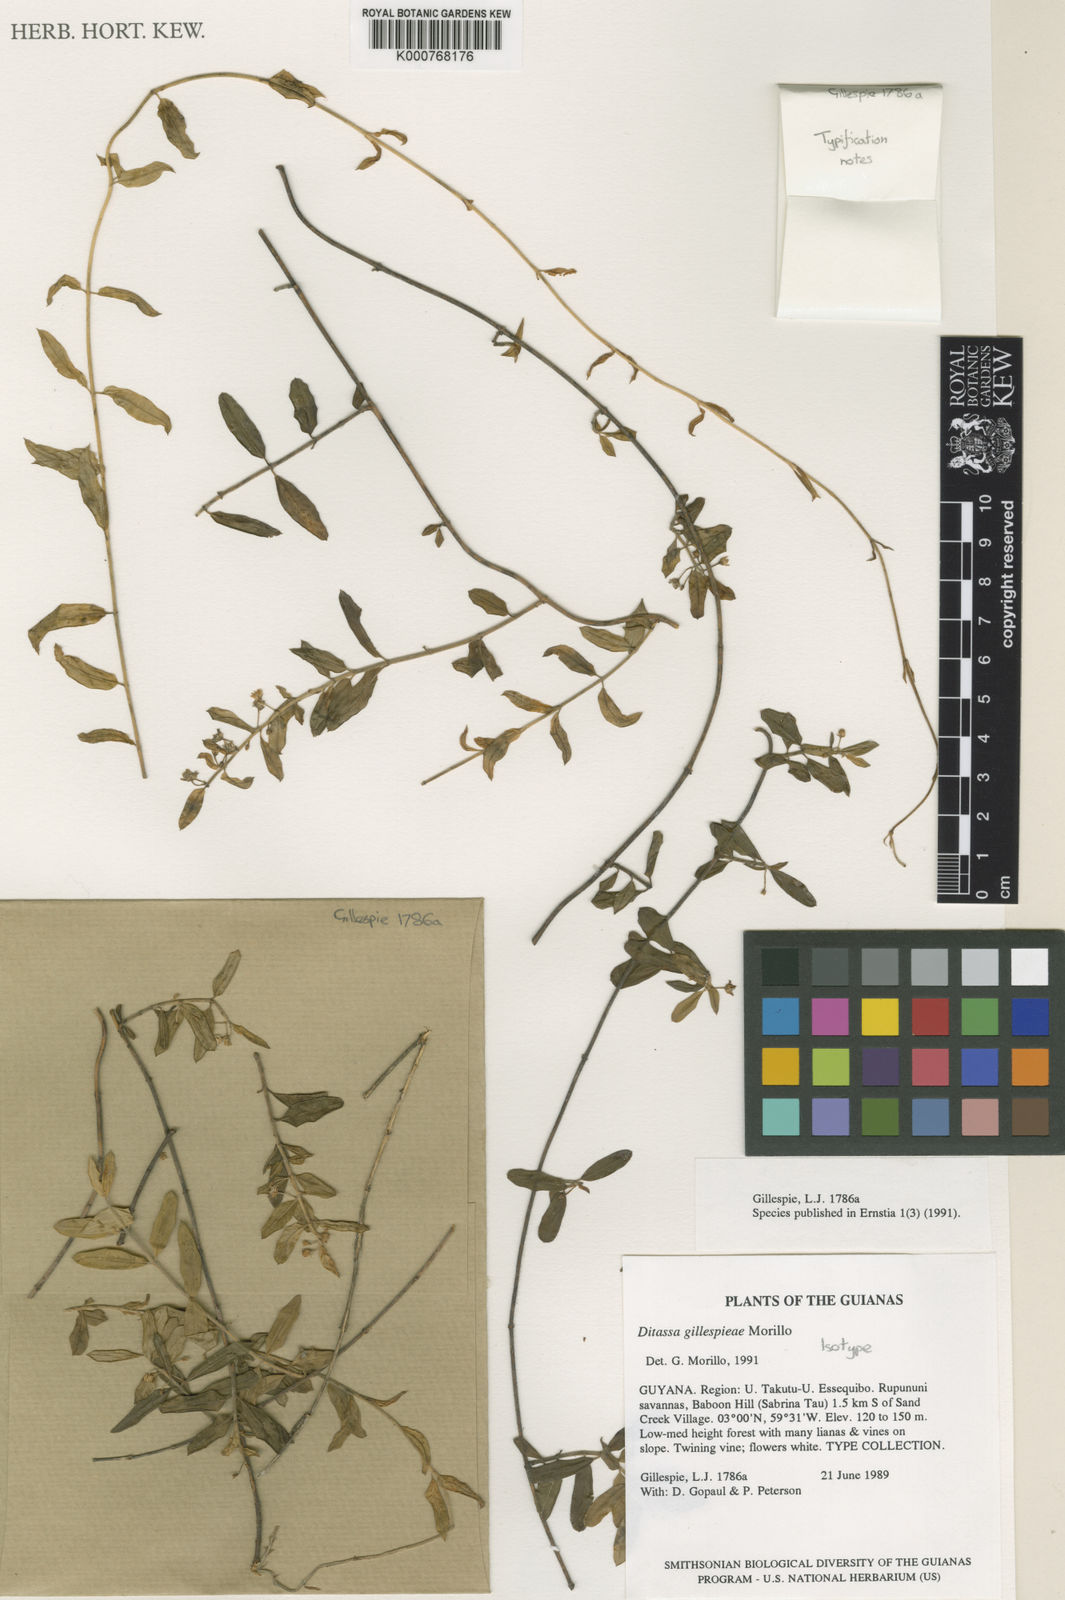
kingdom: Plantae
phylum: Tracheophyta
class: Magnoliopsida
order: Gentianales
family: Apocynaceae
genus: Ditassa
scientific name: Ditassa gillespieae
